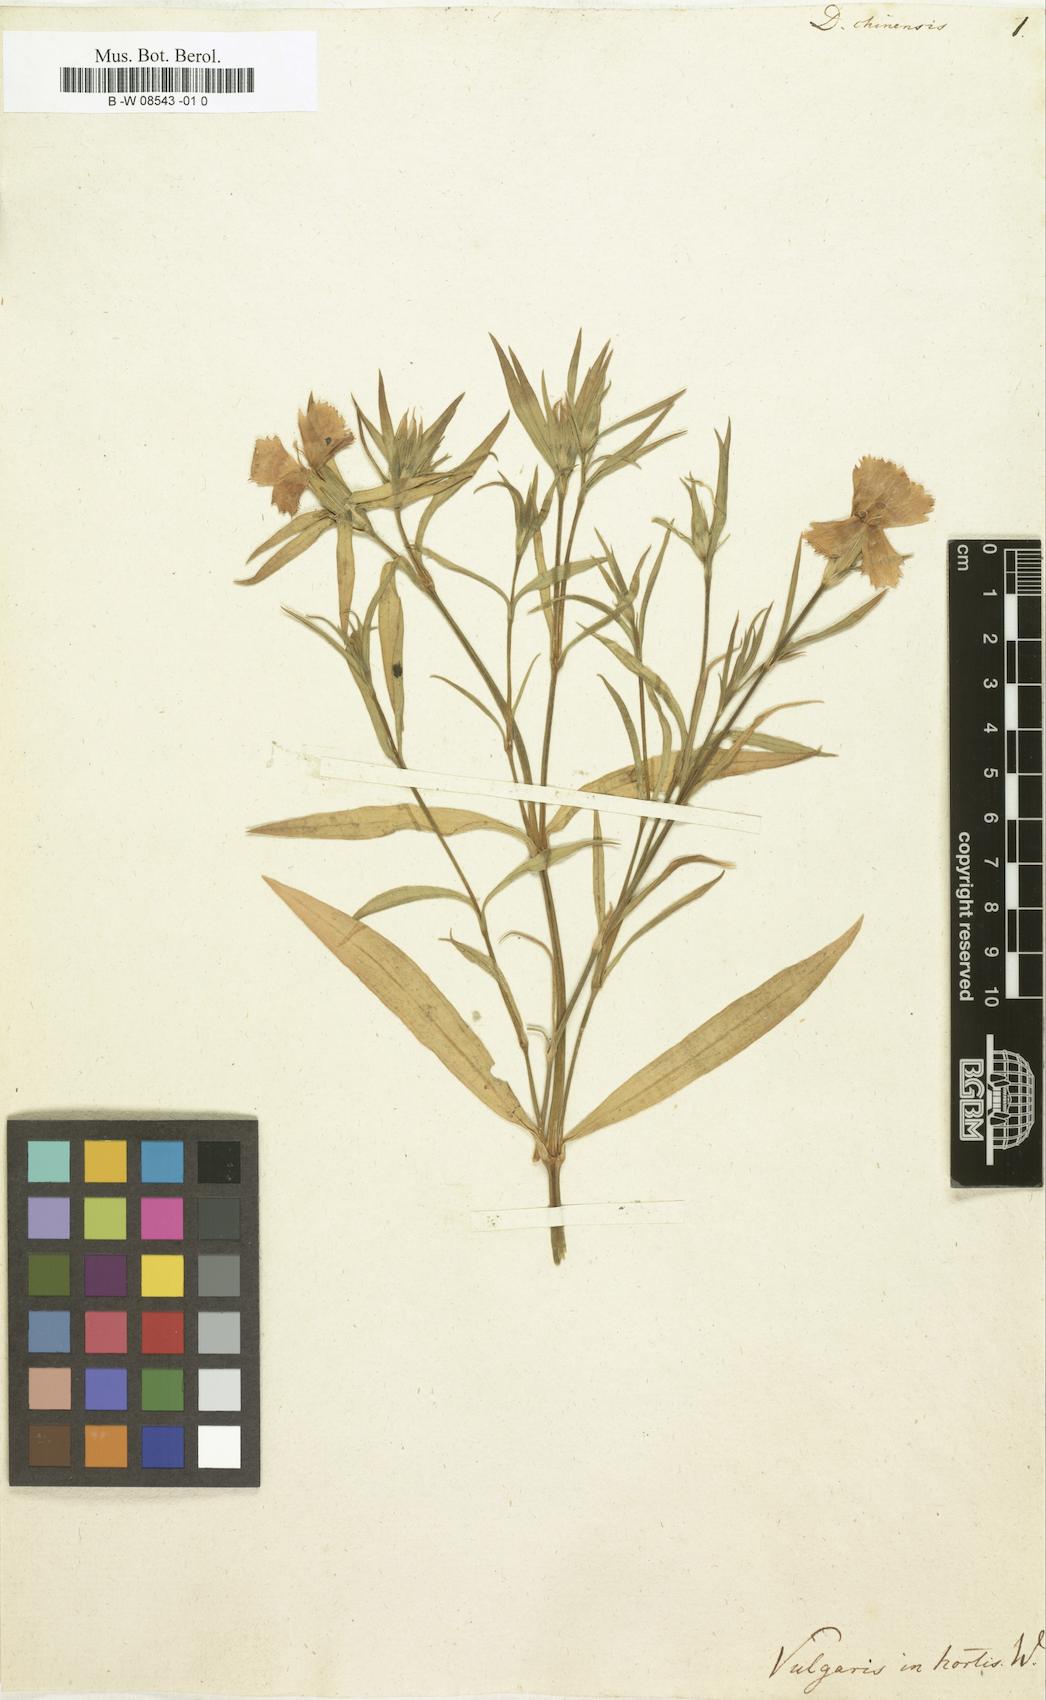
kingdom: Plantae
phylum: Tracheophyta
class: Magnoliopsida
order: Caryophyllales
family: Caryophyllaceae
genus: Dianthus
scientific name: Dianthus chinensis
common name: Rainbow pink
